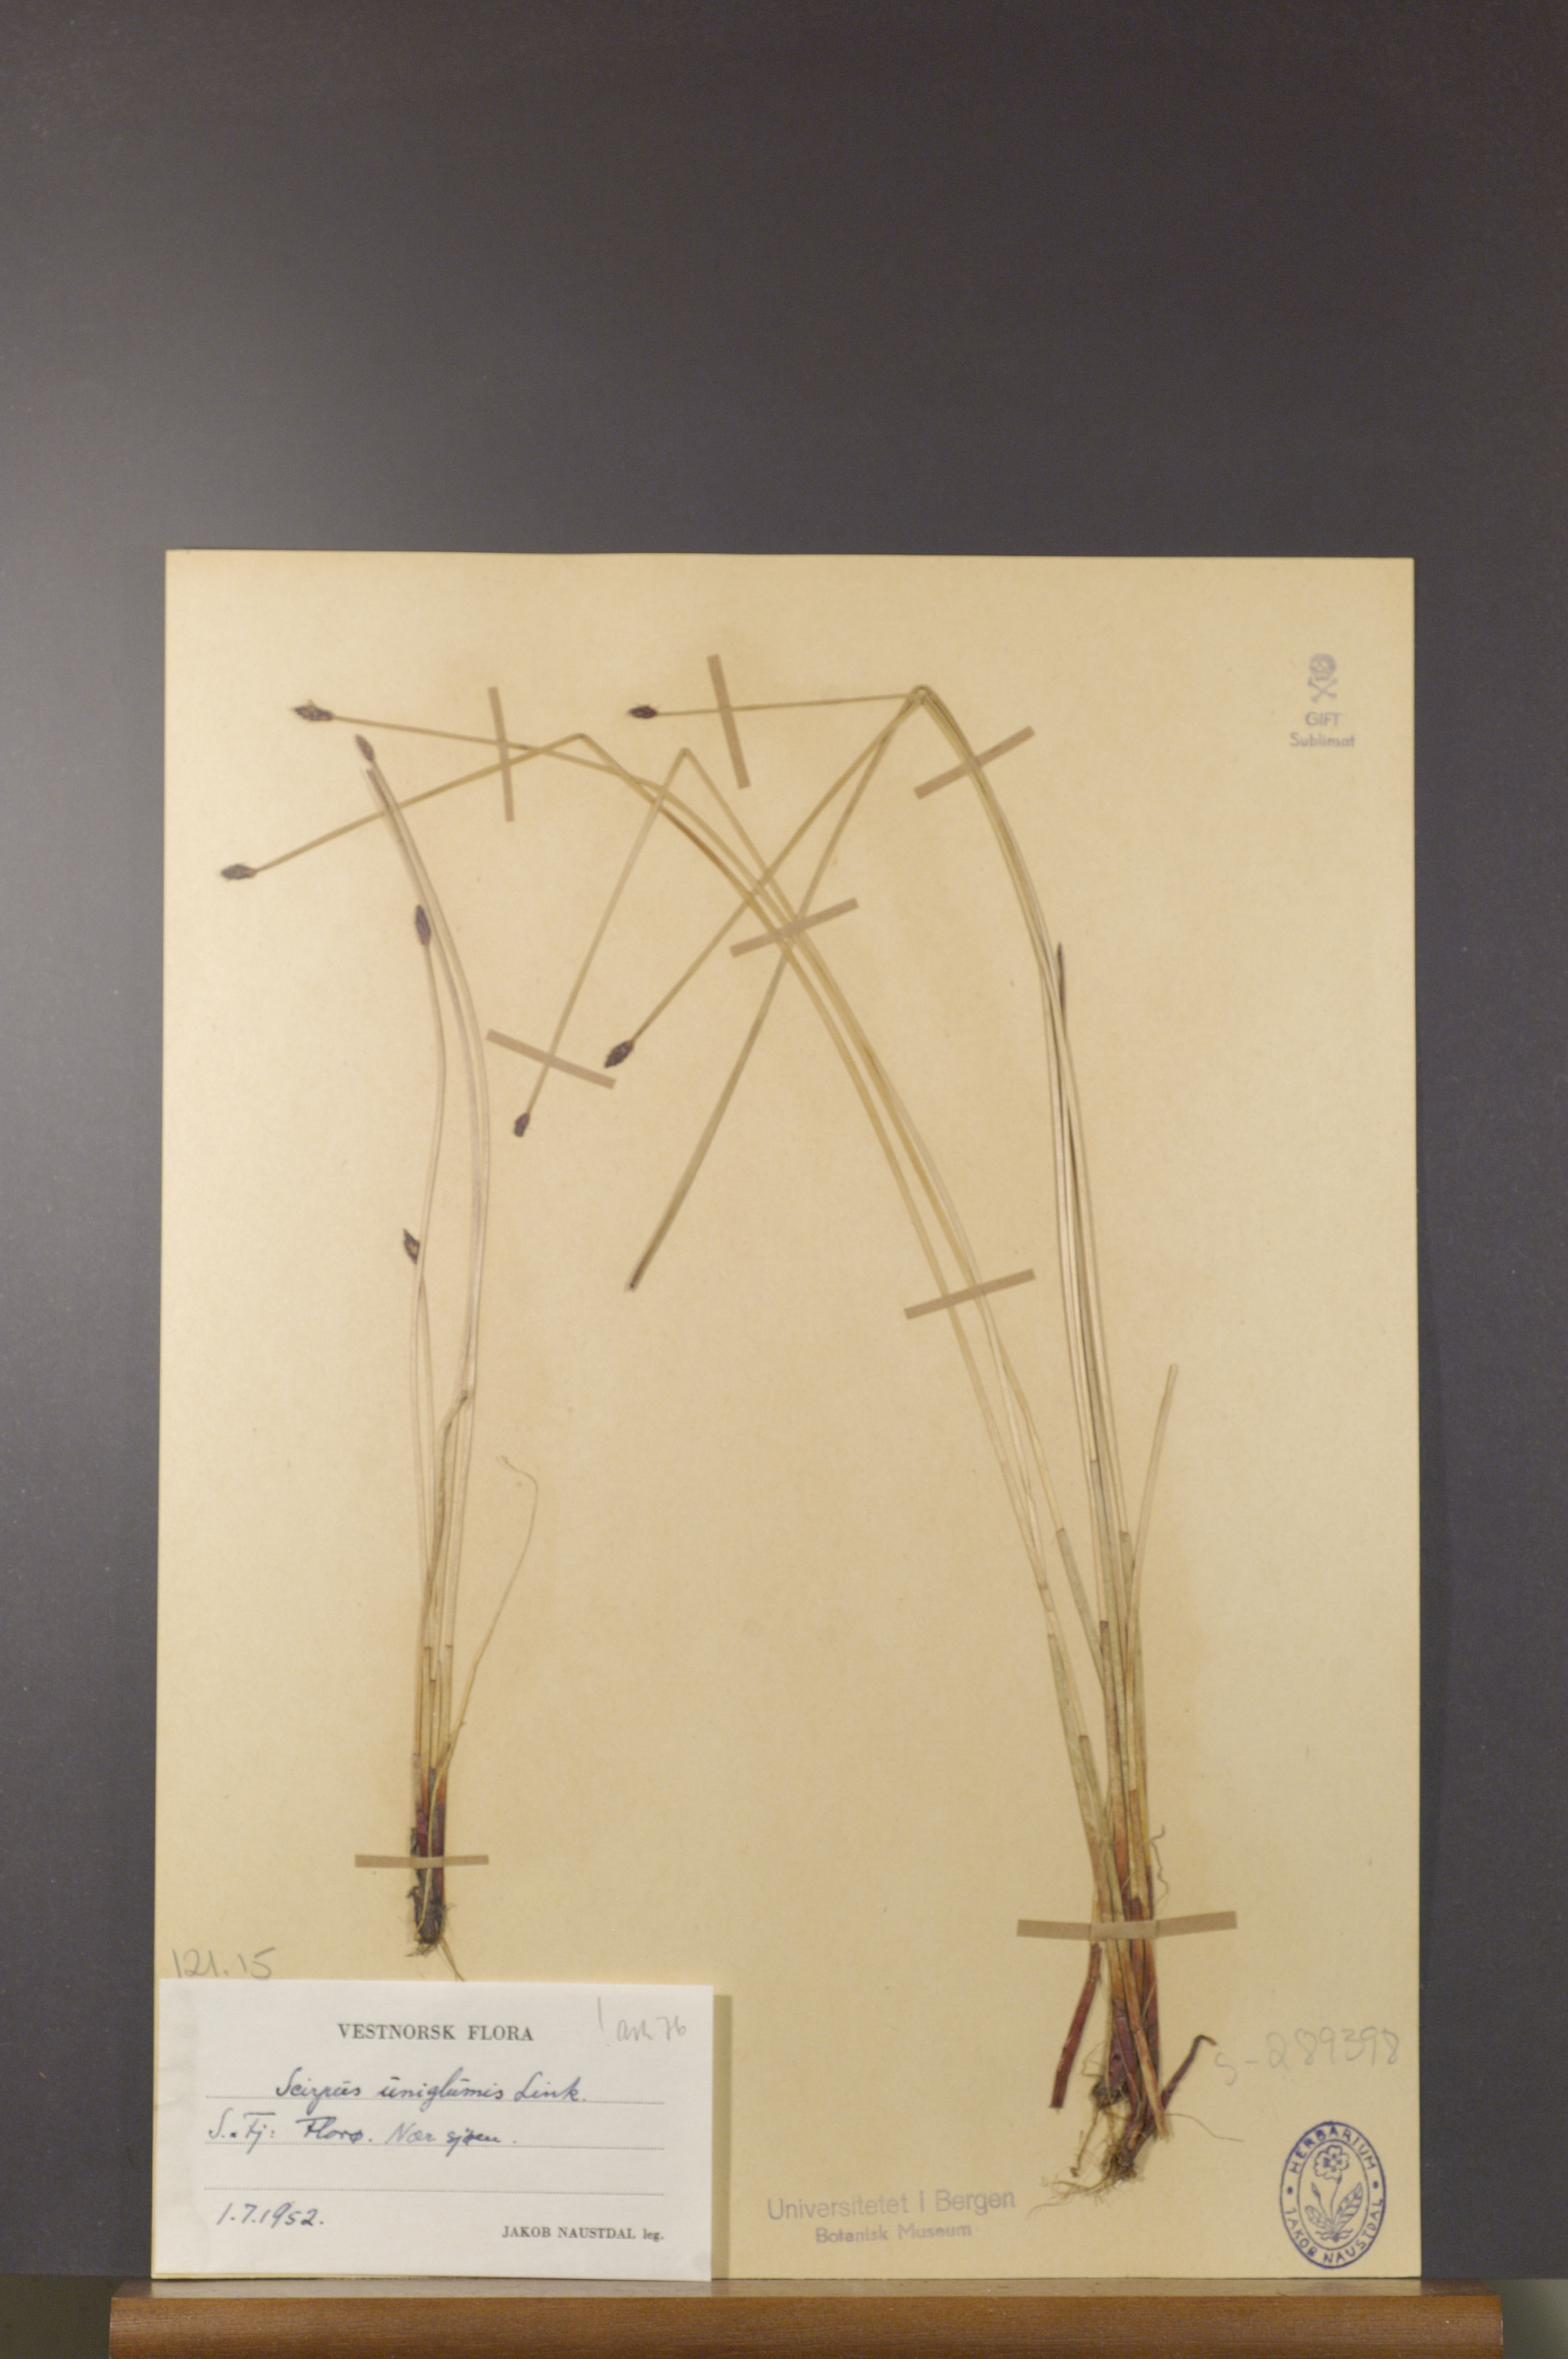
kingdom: Plantae
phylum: Tracheophyta
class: Liliopsida
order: Poales
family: Cyperaceae
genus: Eleocharis
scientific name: Eleocharis uniglumis
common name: Slender spike-rush
